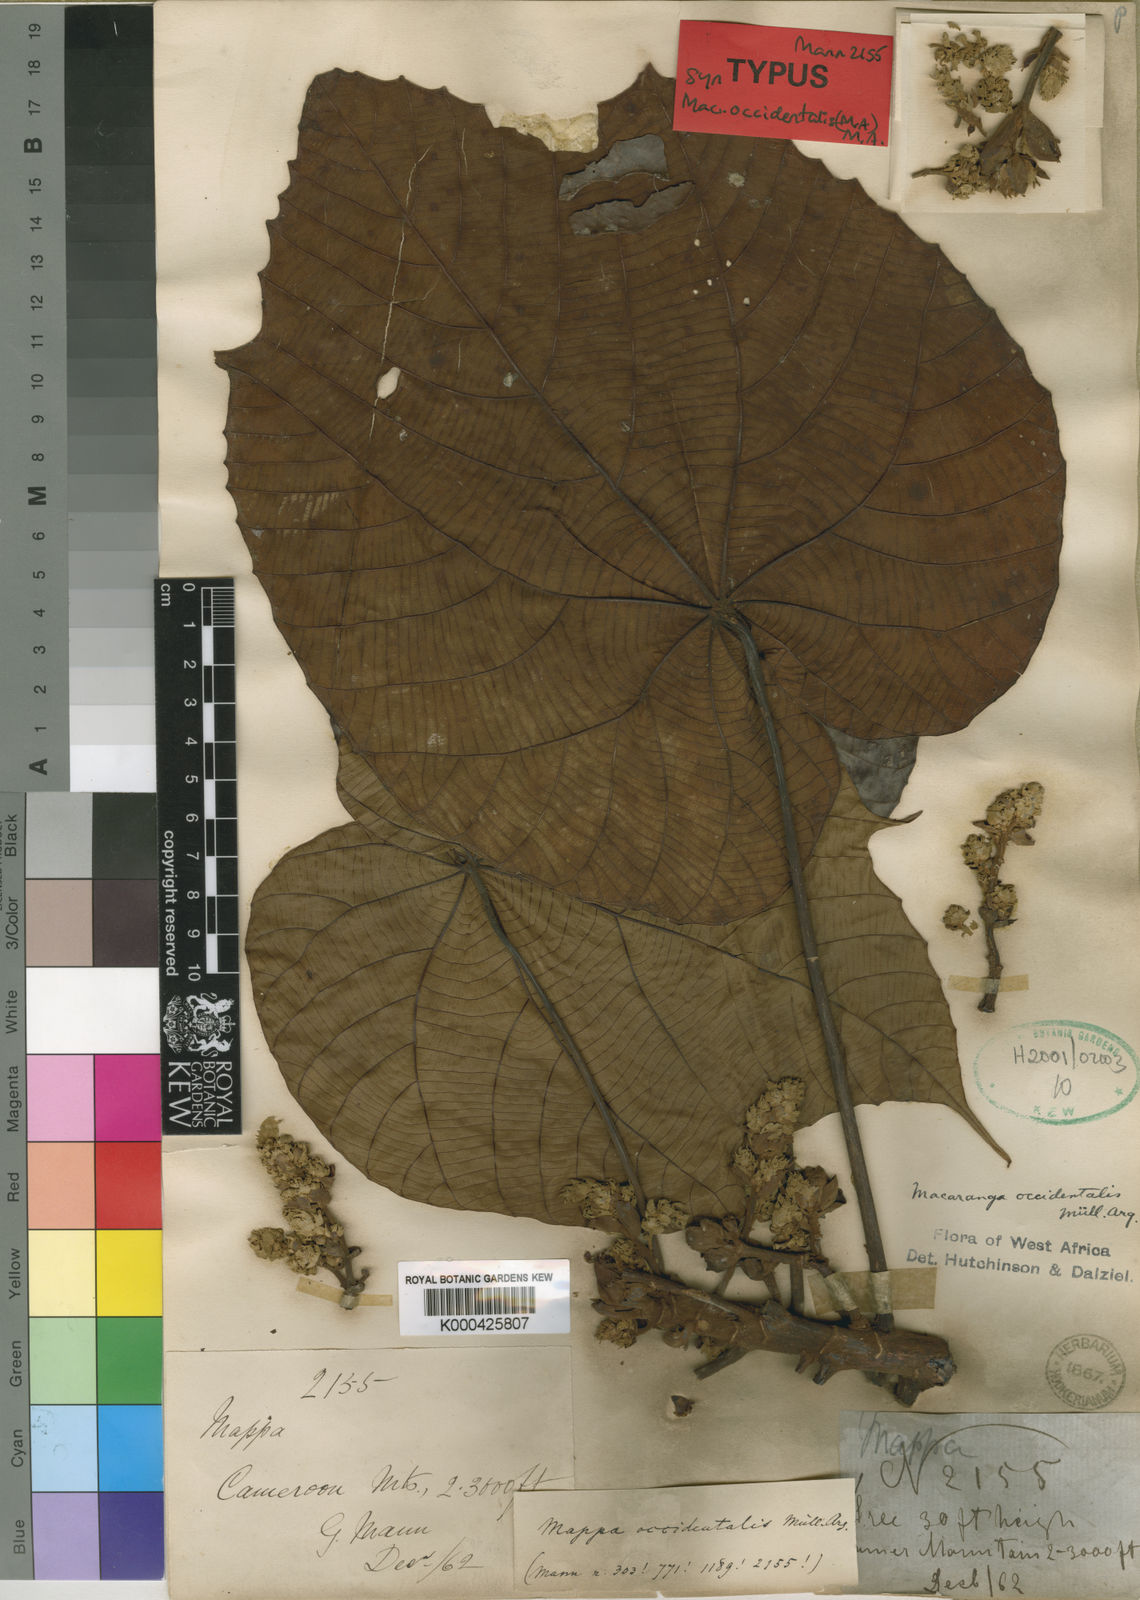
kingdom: Plantae
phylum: Tracheophyta
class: Magnoliopsida
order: Malpighiales
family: Euphorbiaceae
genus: Macaranga
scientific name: Macaranga
